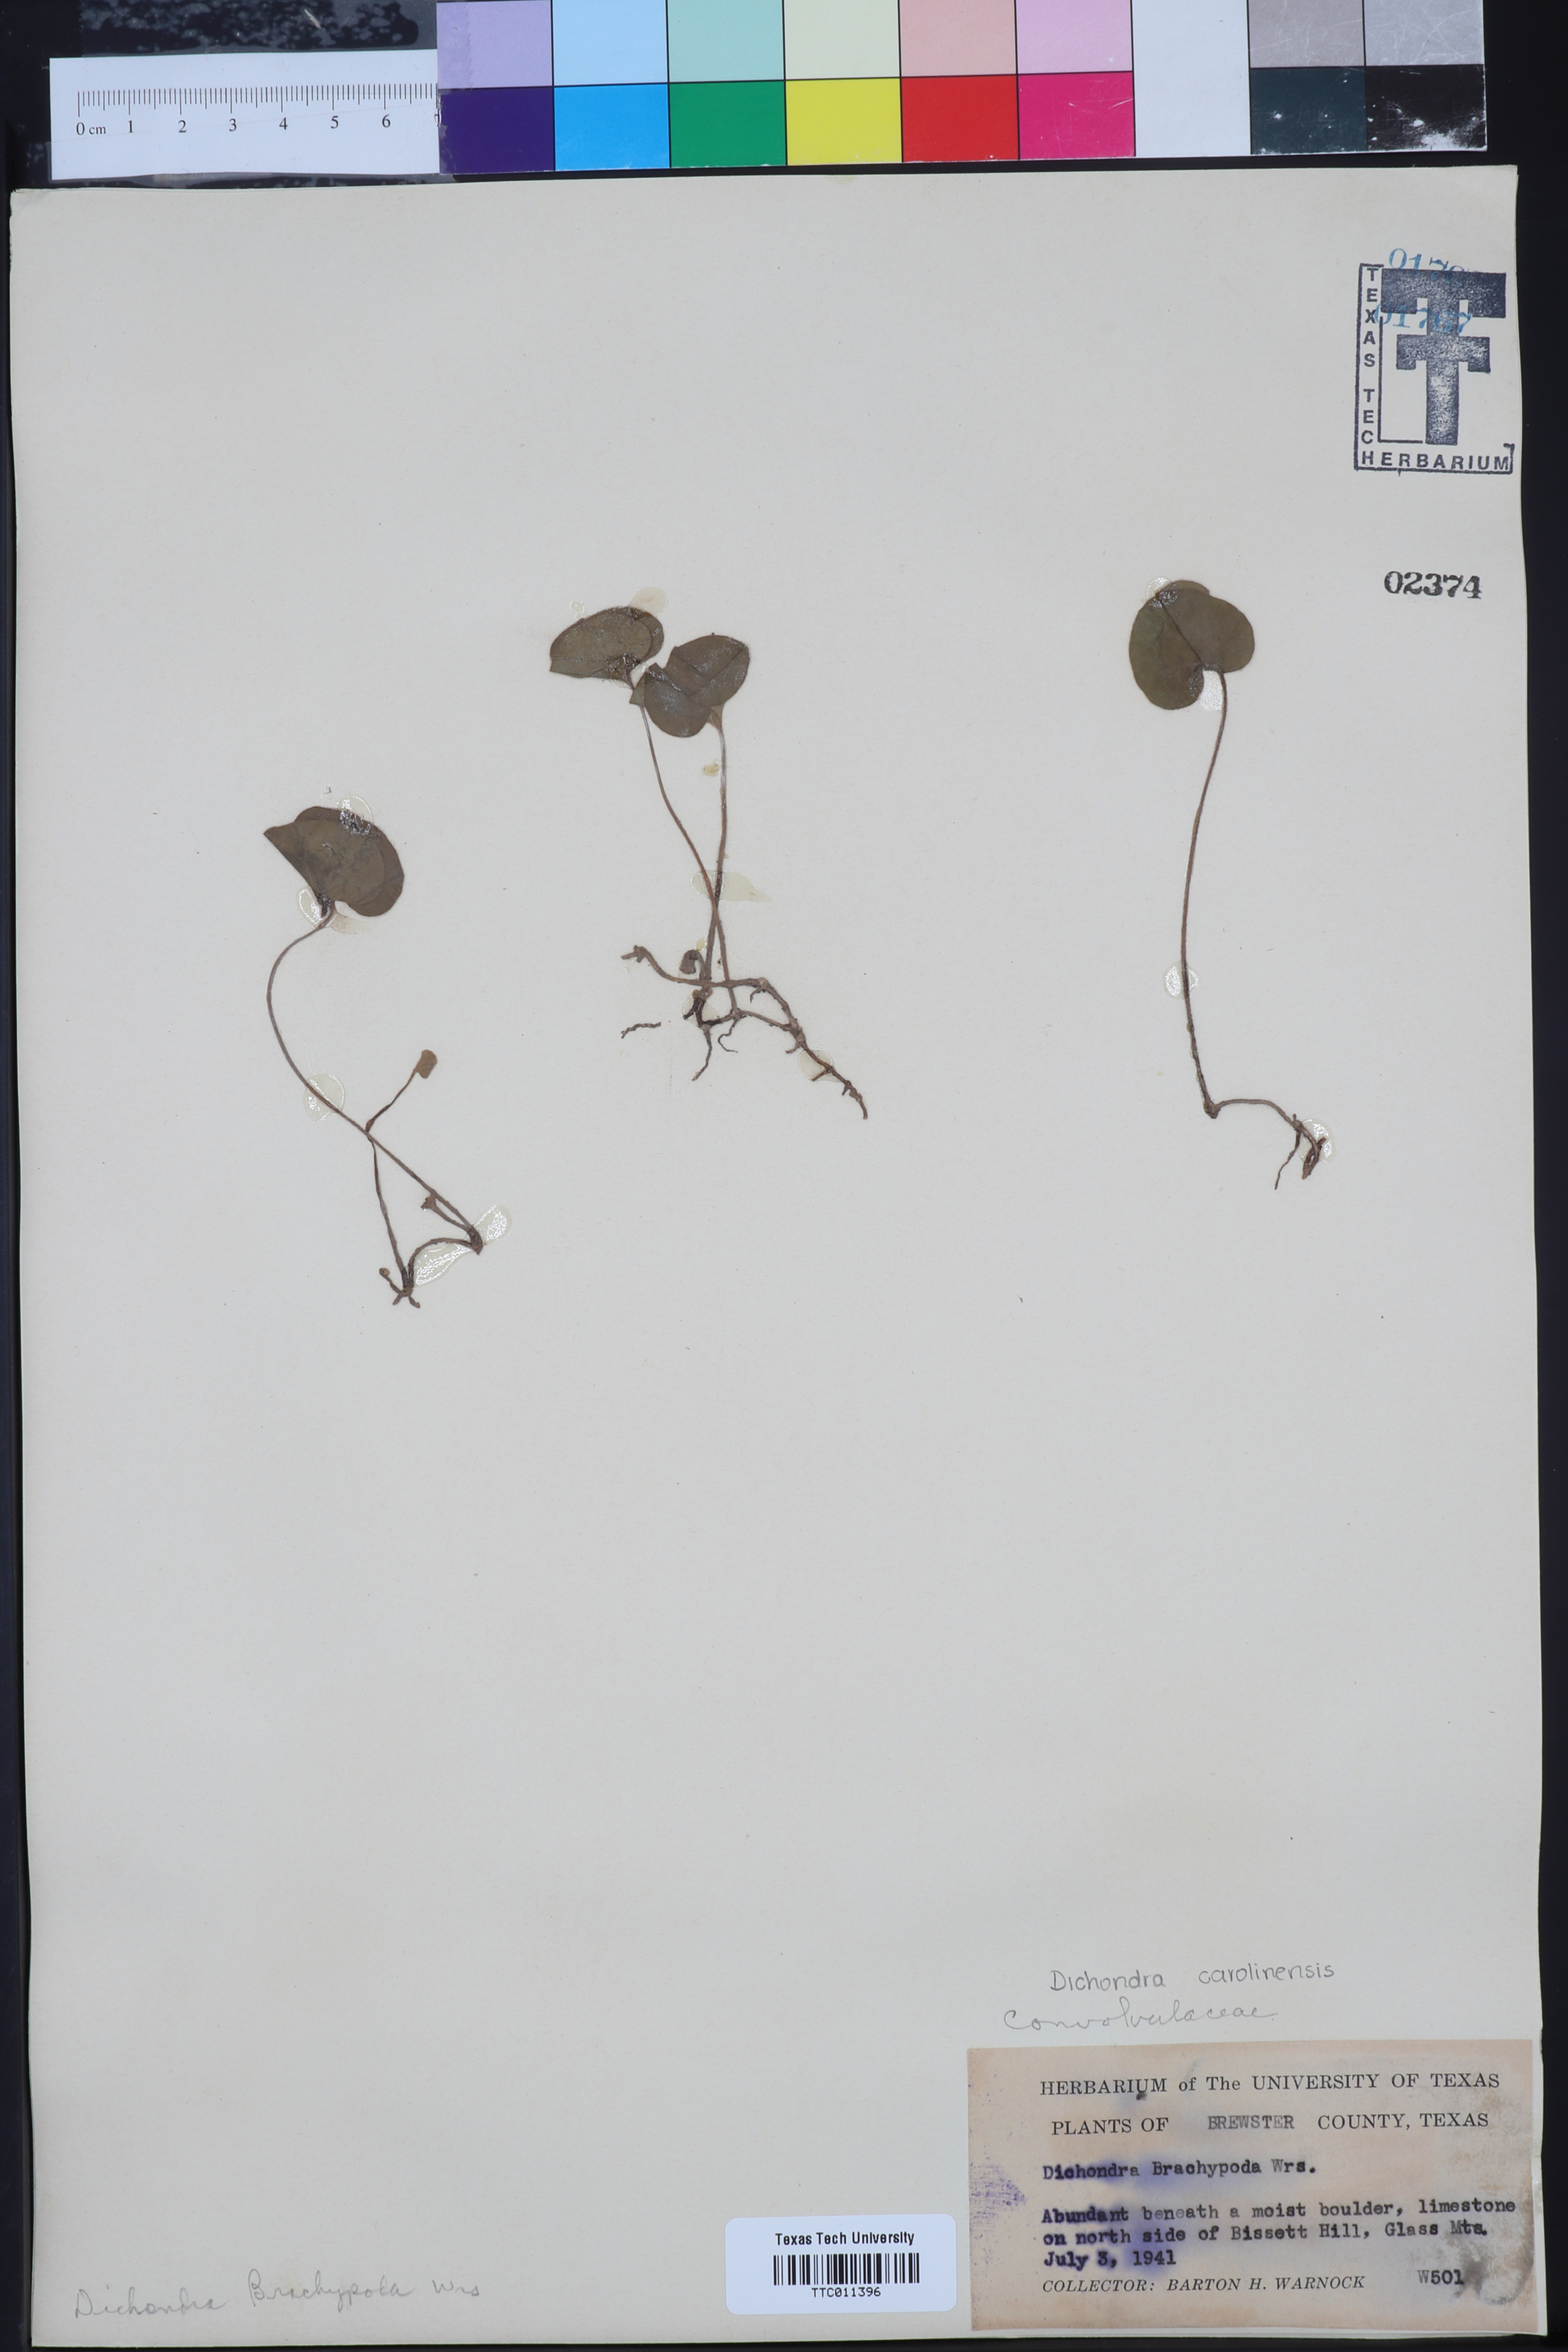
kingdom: Plantae
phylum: Tracheophyta
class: Magnoliopsida
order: Solanales
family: Convolvulaceae
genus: Dichondra
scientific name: Dichondra brachypoda
